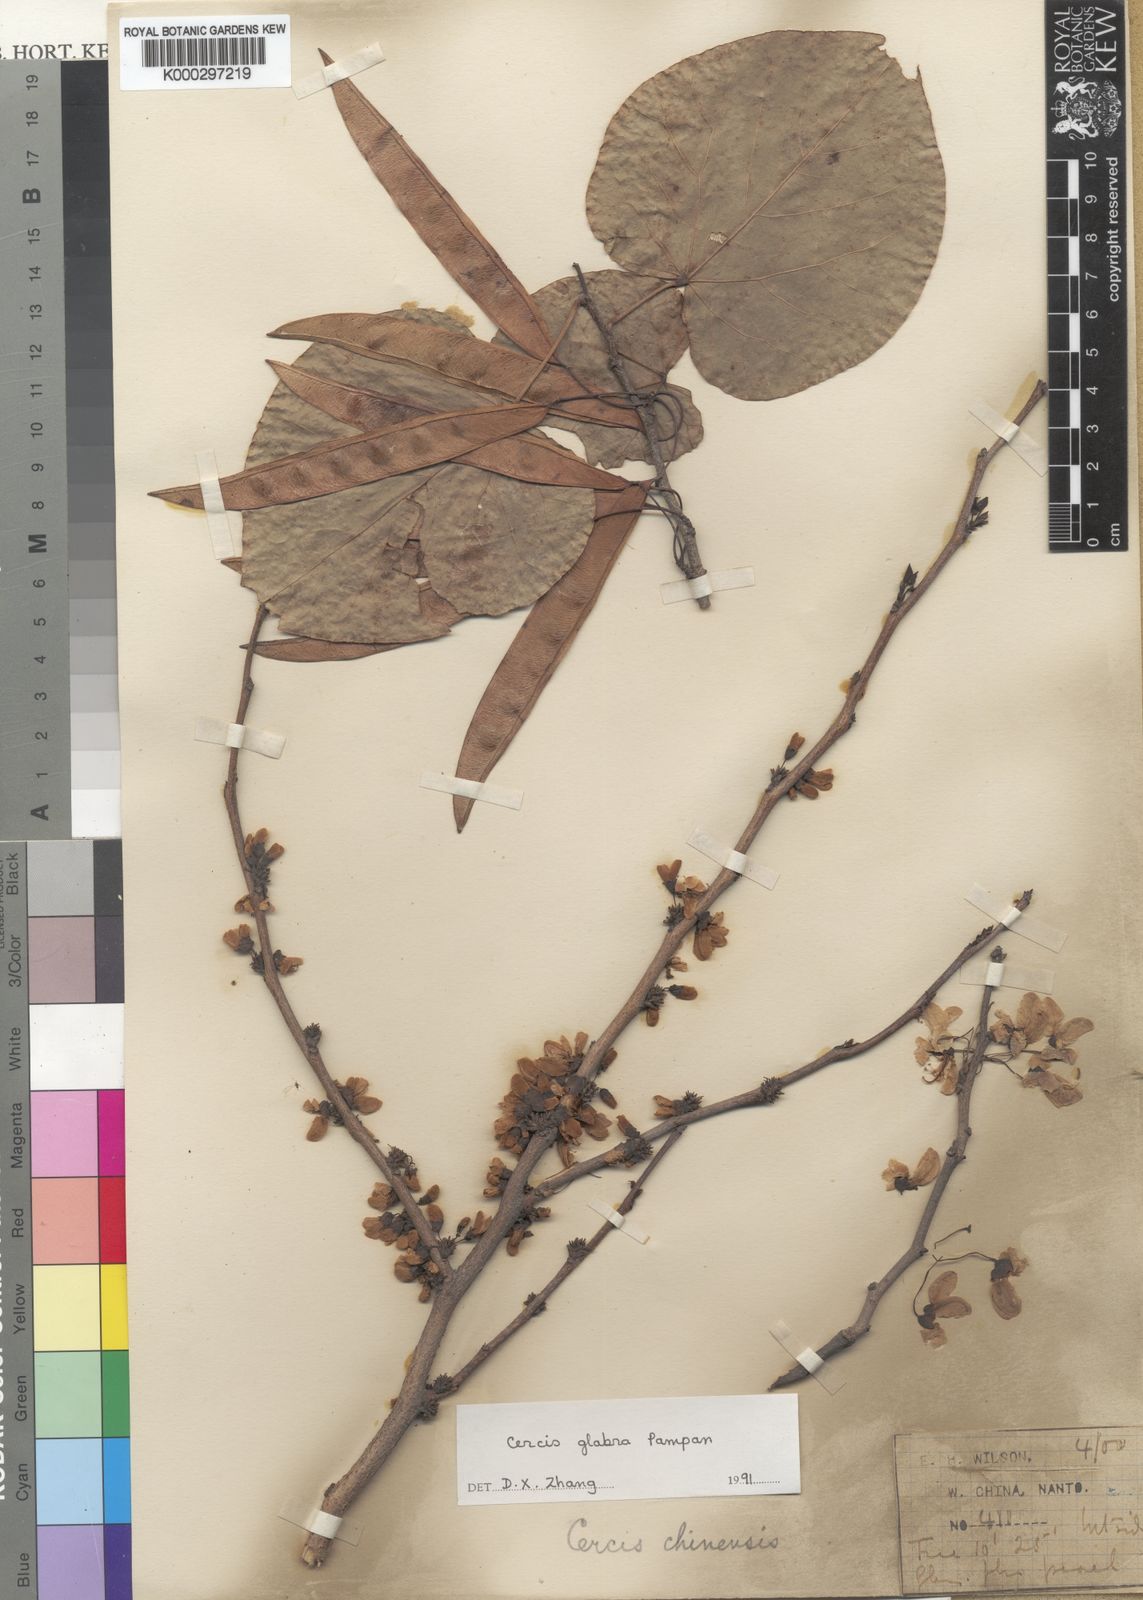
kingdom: Plantae
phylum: Tracheophyta
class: Magnoliopsida
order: Fabales
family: Fabaceae
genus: Cercis
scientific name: Cercis glabra
